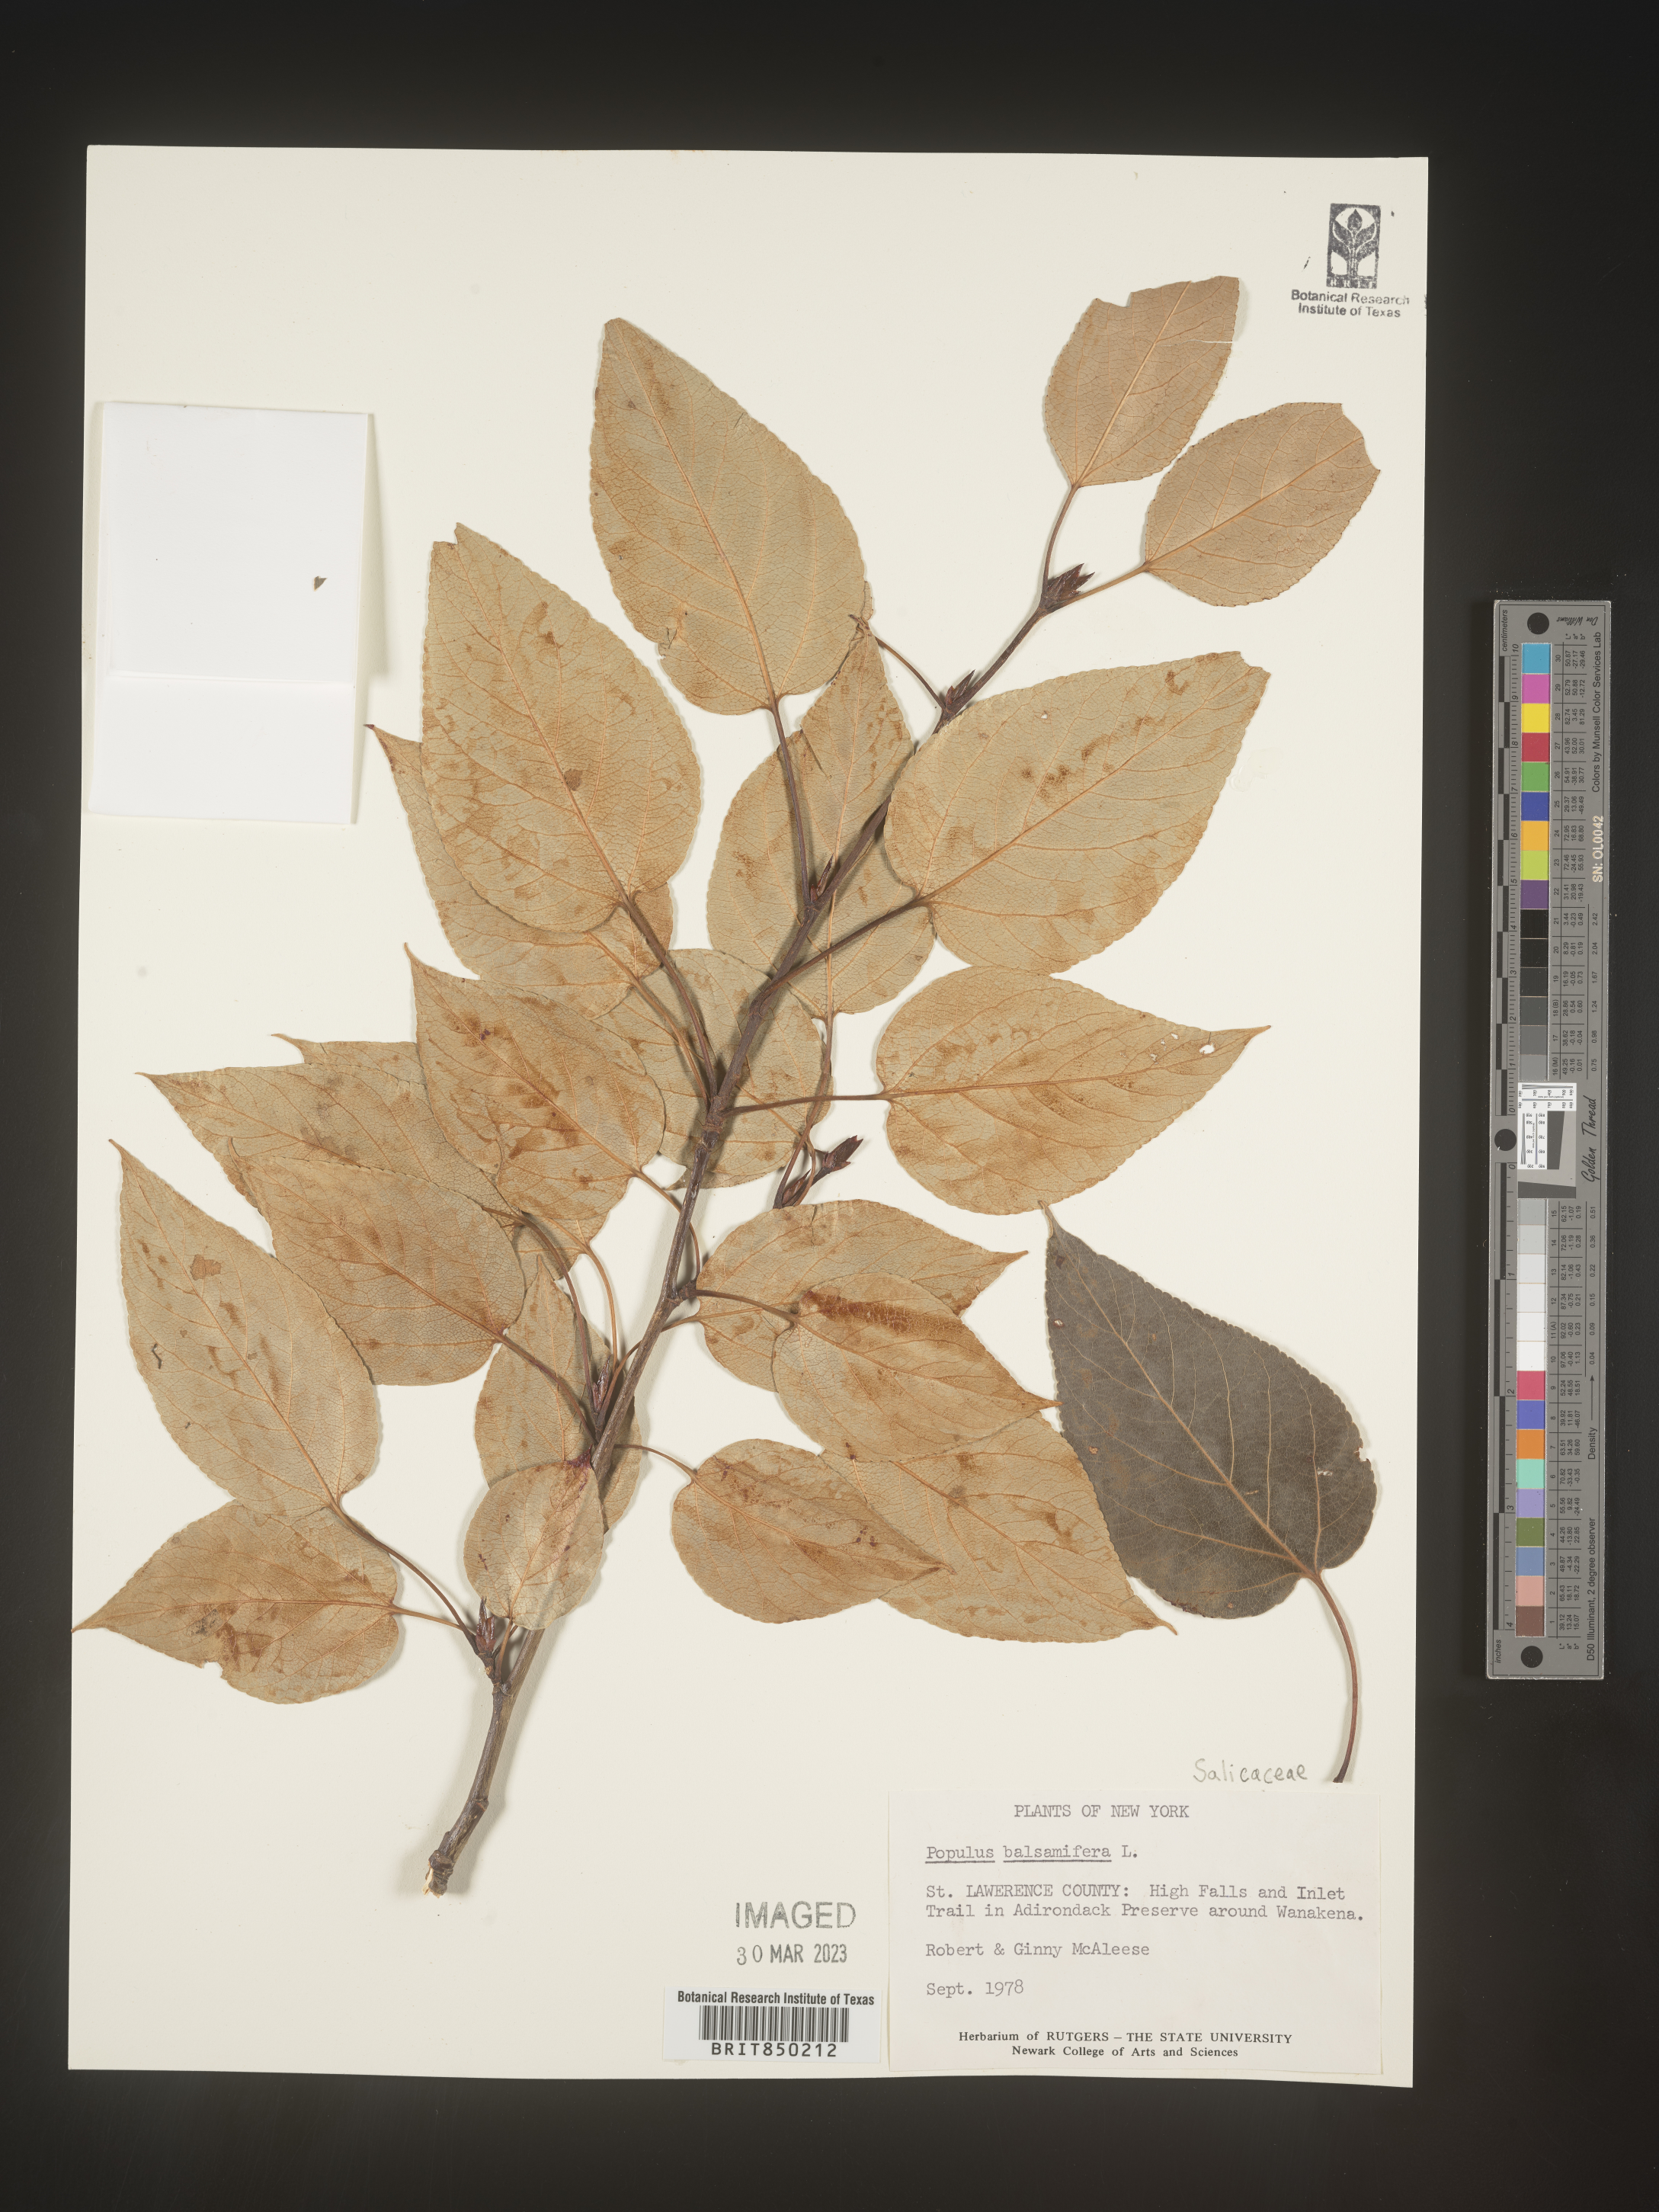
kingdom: Plantae
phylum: Tracheophyta
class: Magnoliopsida
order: Malpighiales
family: Salicaceae
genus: Populus
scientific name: Populus balsamifera
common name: Balsam poplar
